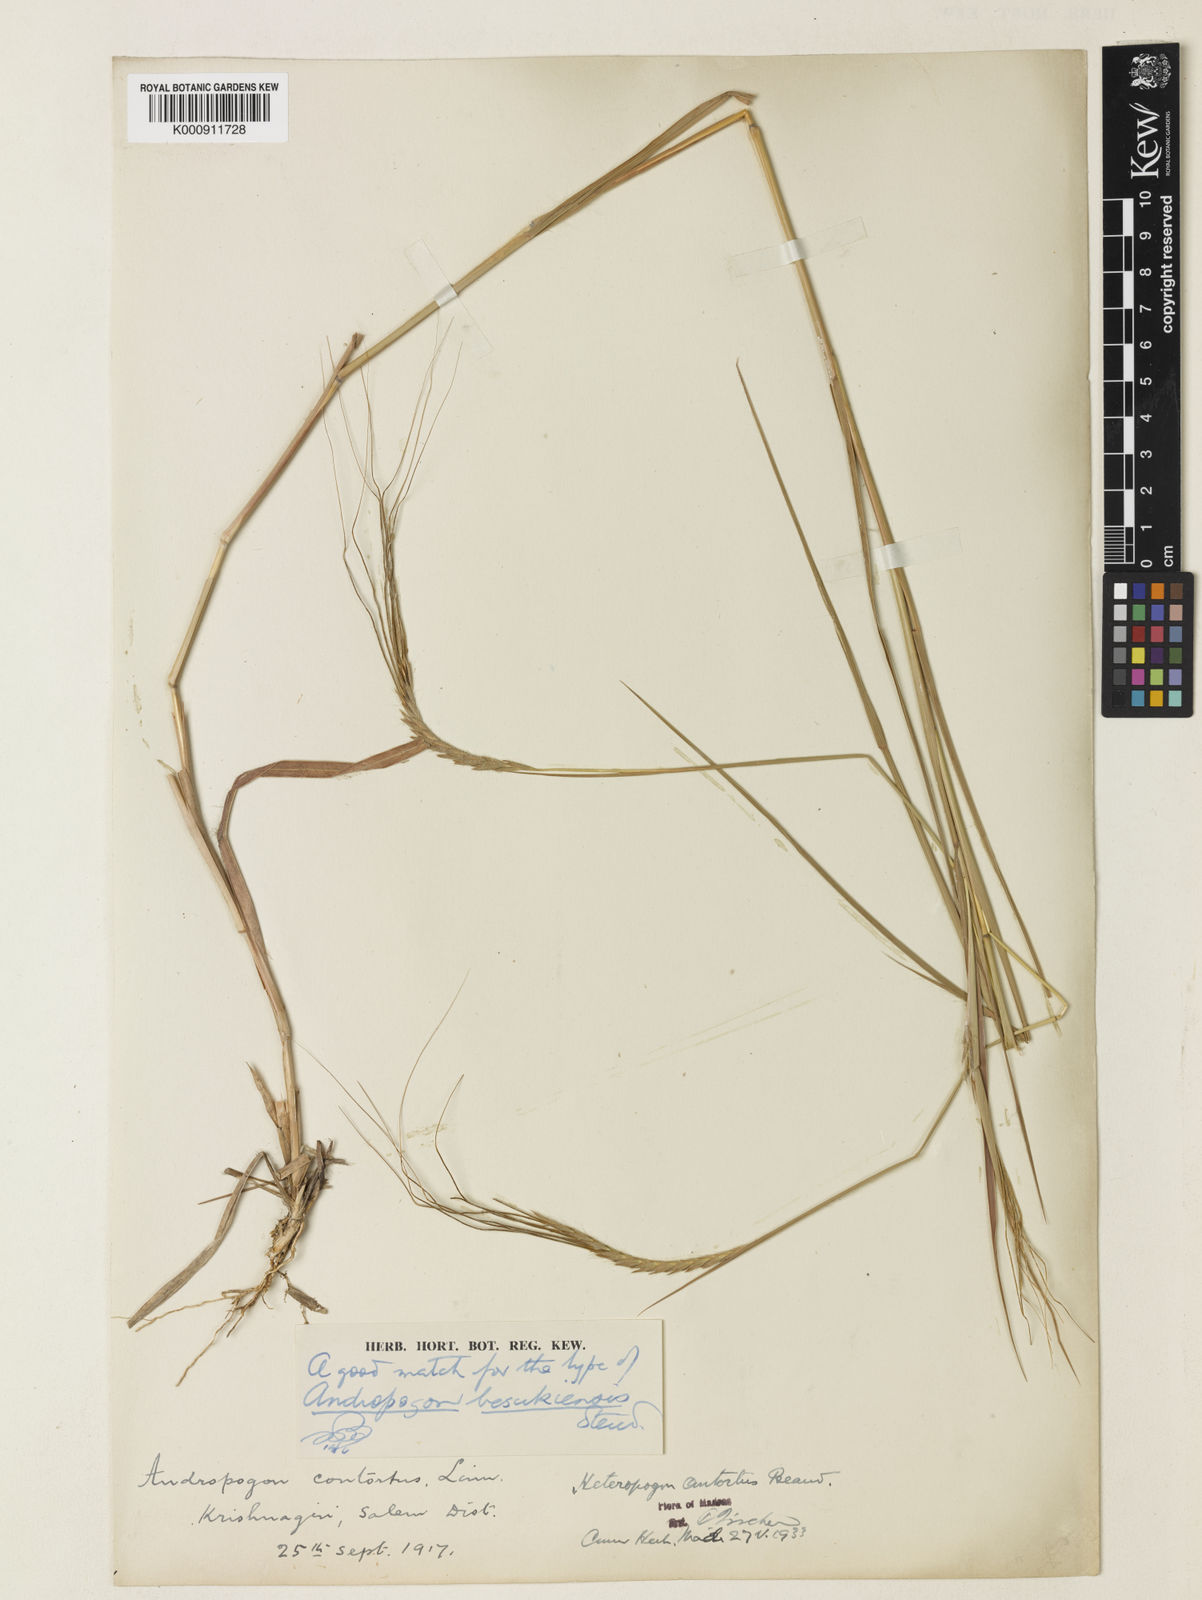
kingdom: Plantae
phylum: Tracheophyta
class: Liliopsida
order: Poales
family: Poaceae
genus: Heteropogon
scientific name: Heteropogon contortus
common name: Tanglehead
